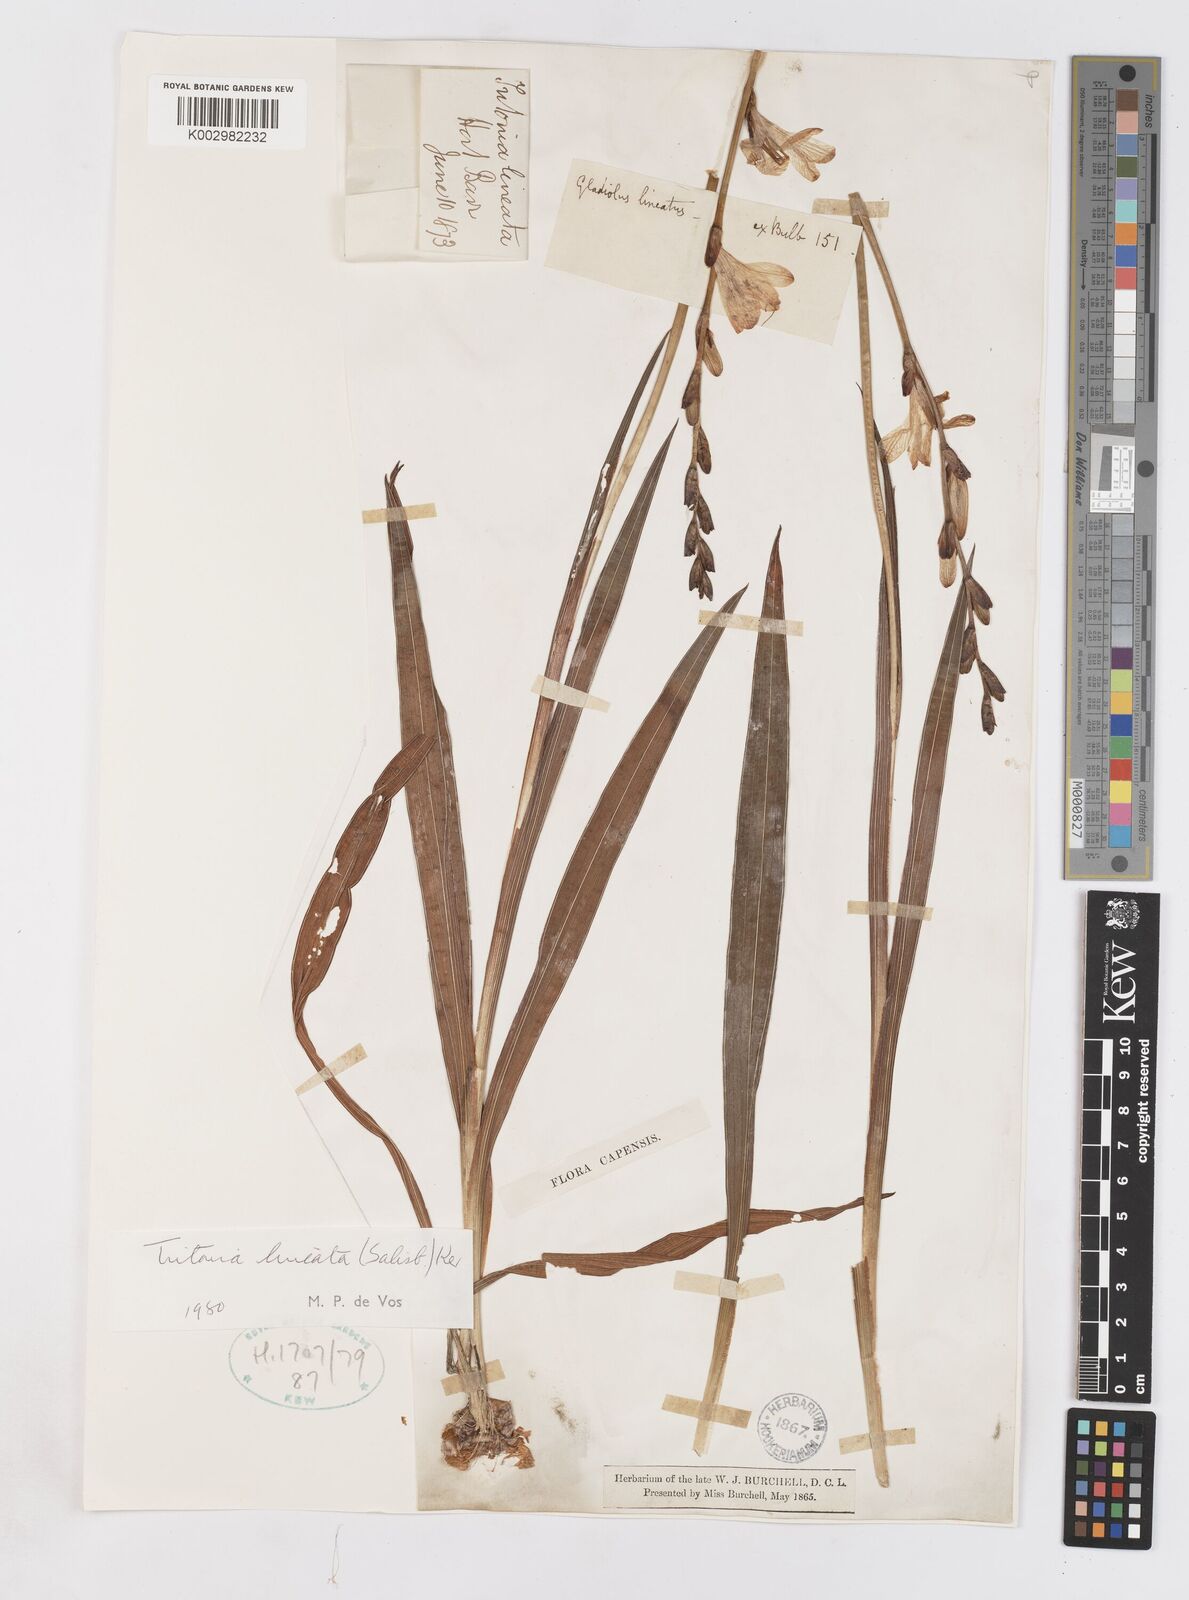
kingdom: Plantae
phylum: Tracheophyta
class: Liliopsida
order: Asparagales
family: Iridaceae
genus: Tritonia
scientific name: Tritonia gladiolaris
